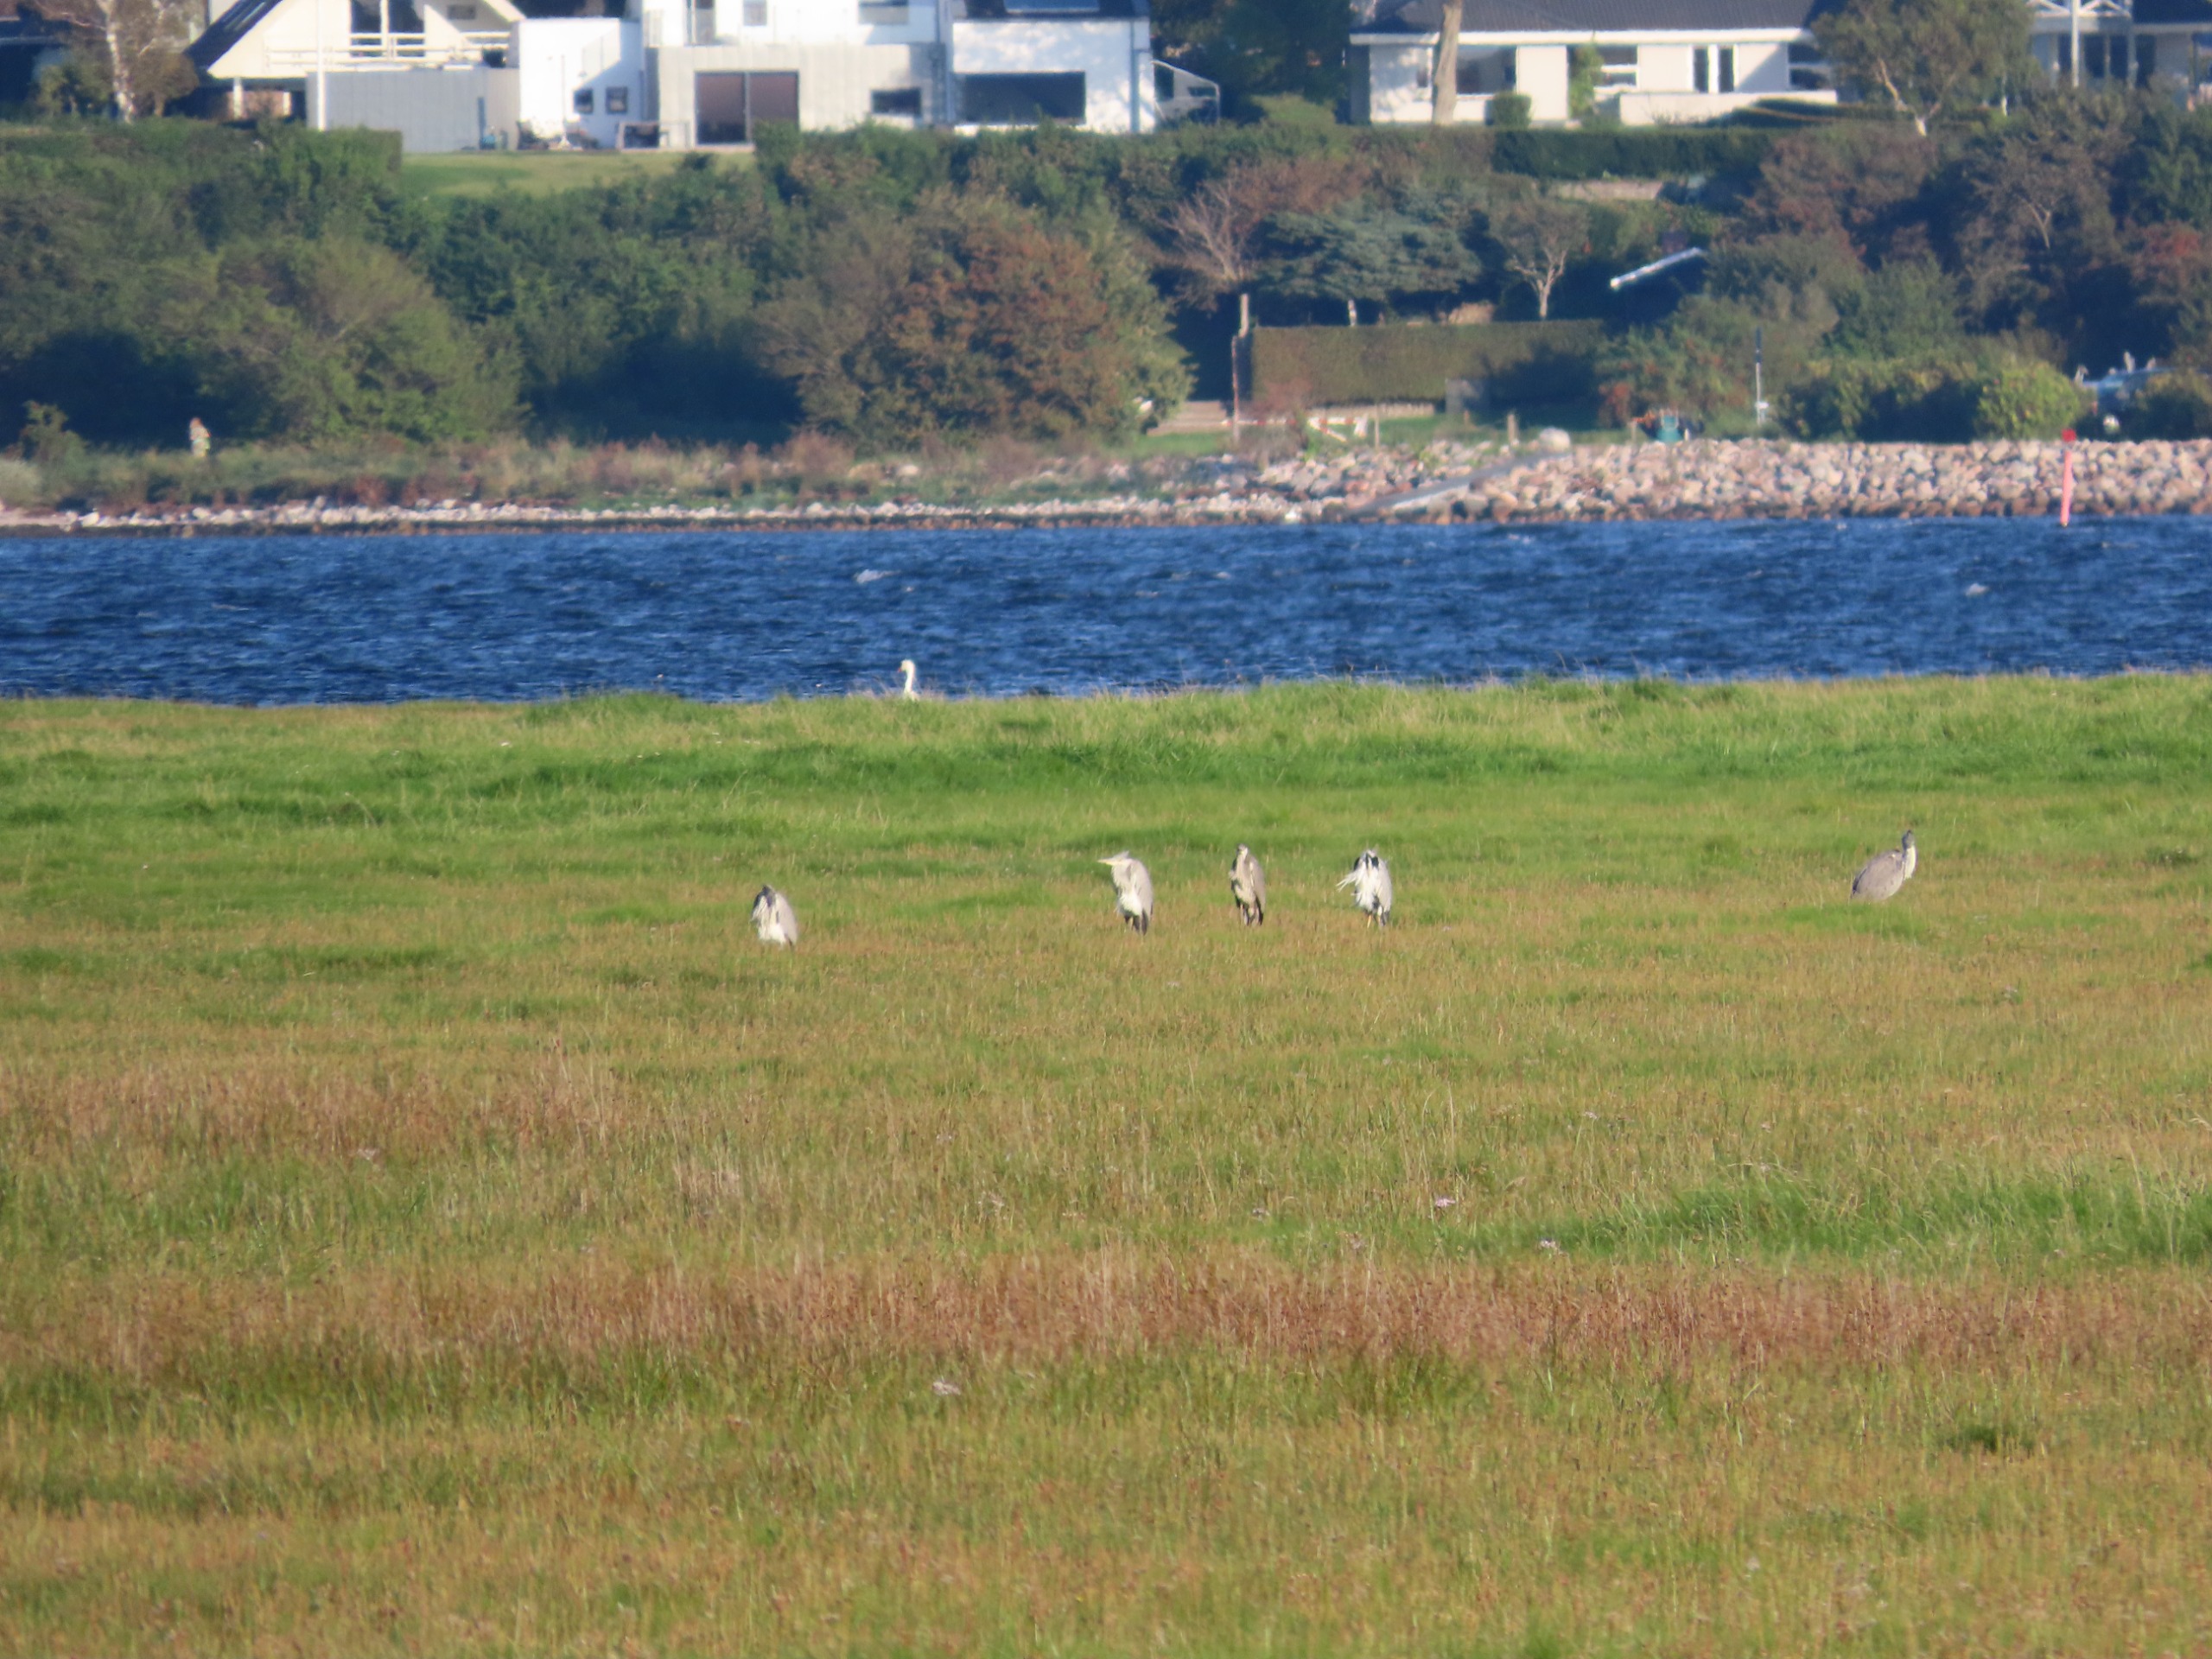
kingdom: Animalia
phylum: Chordata
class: Aves
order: Pelecaniformes
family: Ardeidae
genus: Ardea
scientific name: Ardea cinerea
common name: Fiskehejre
